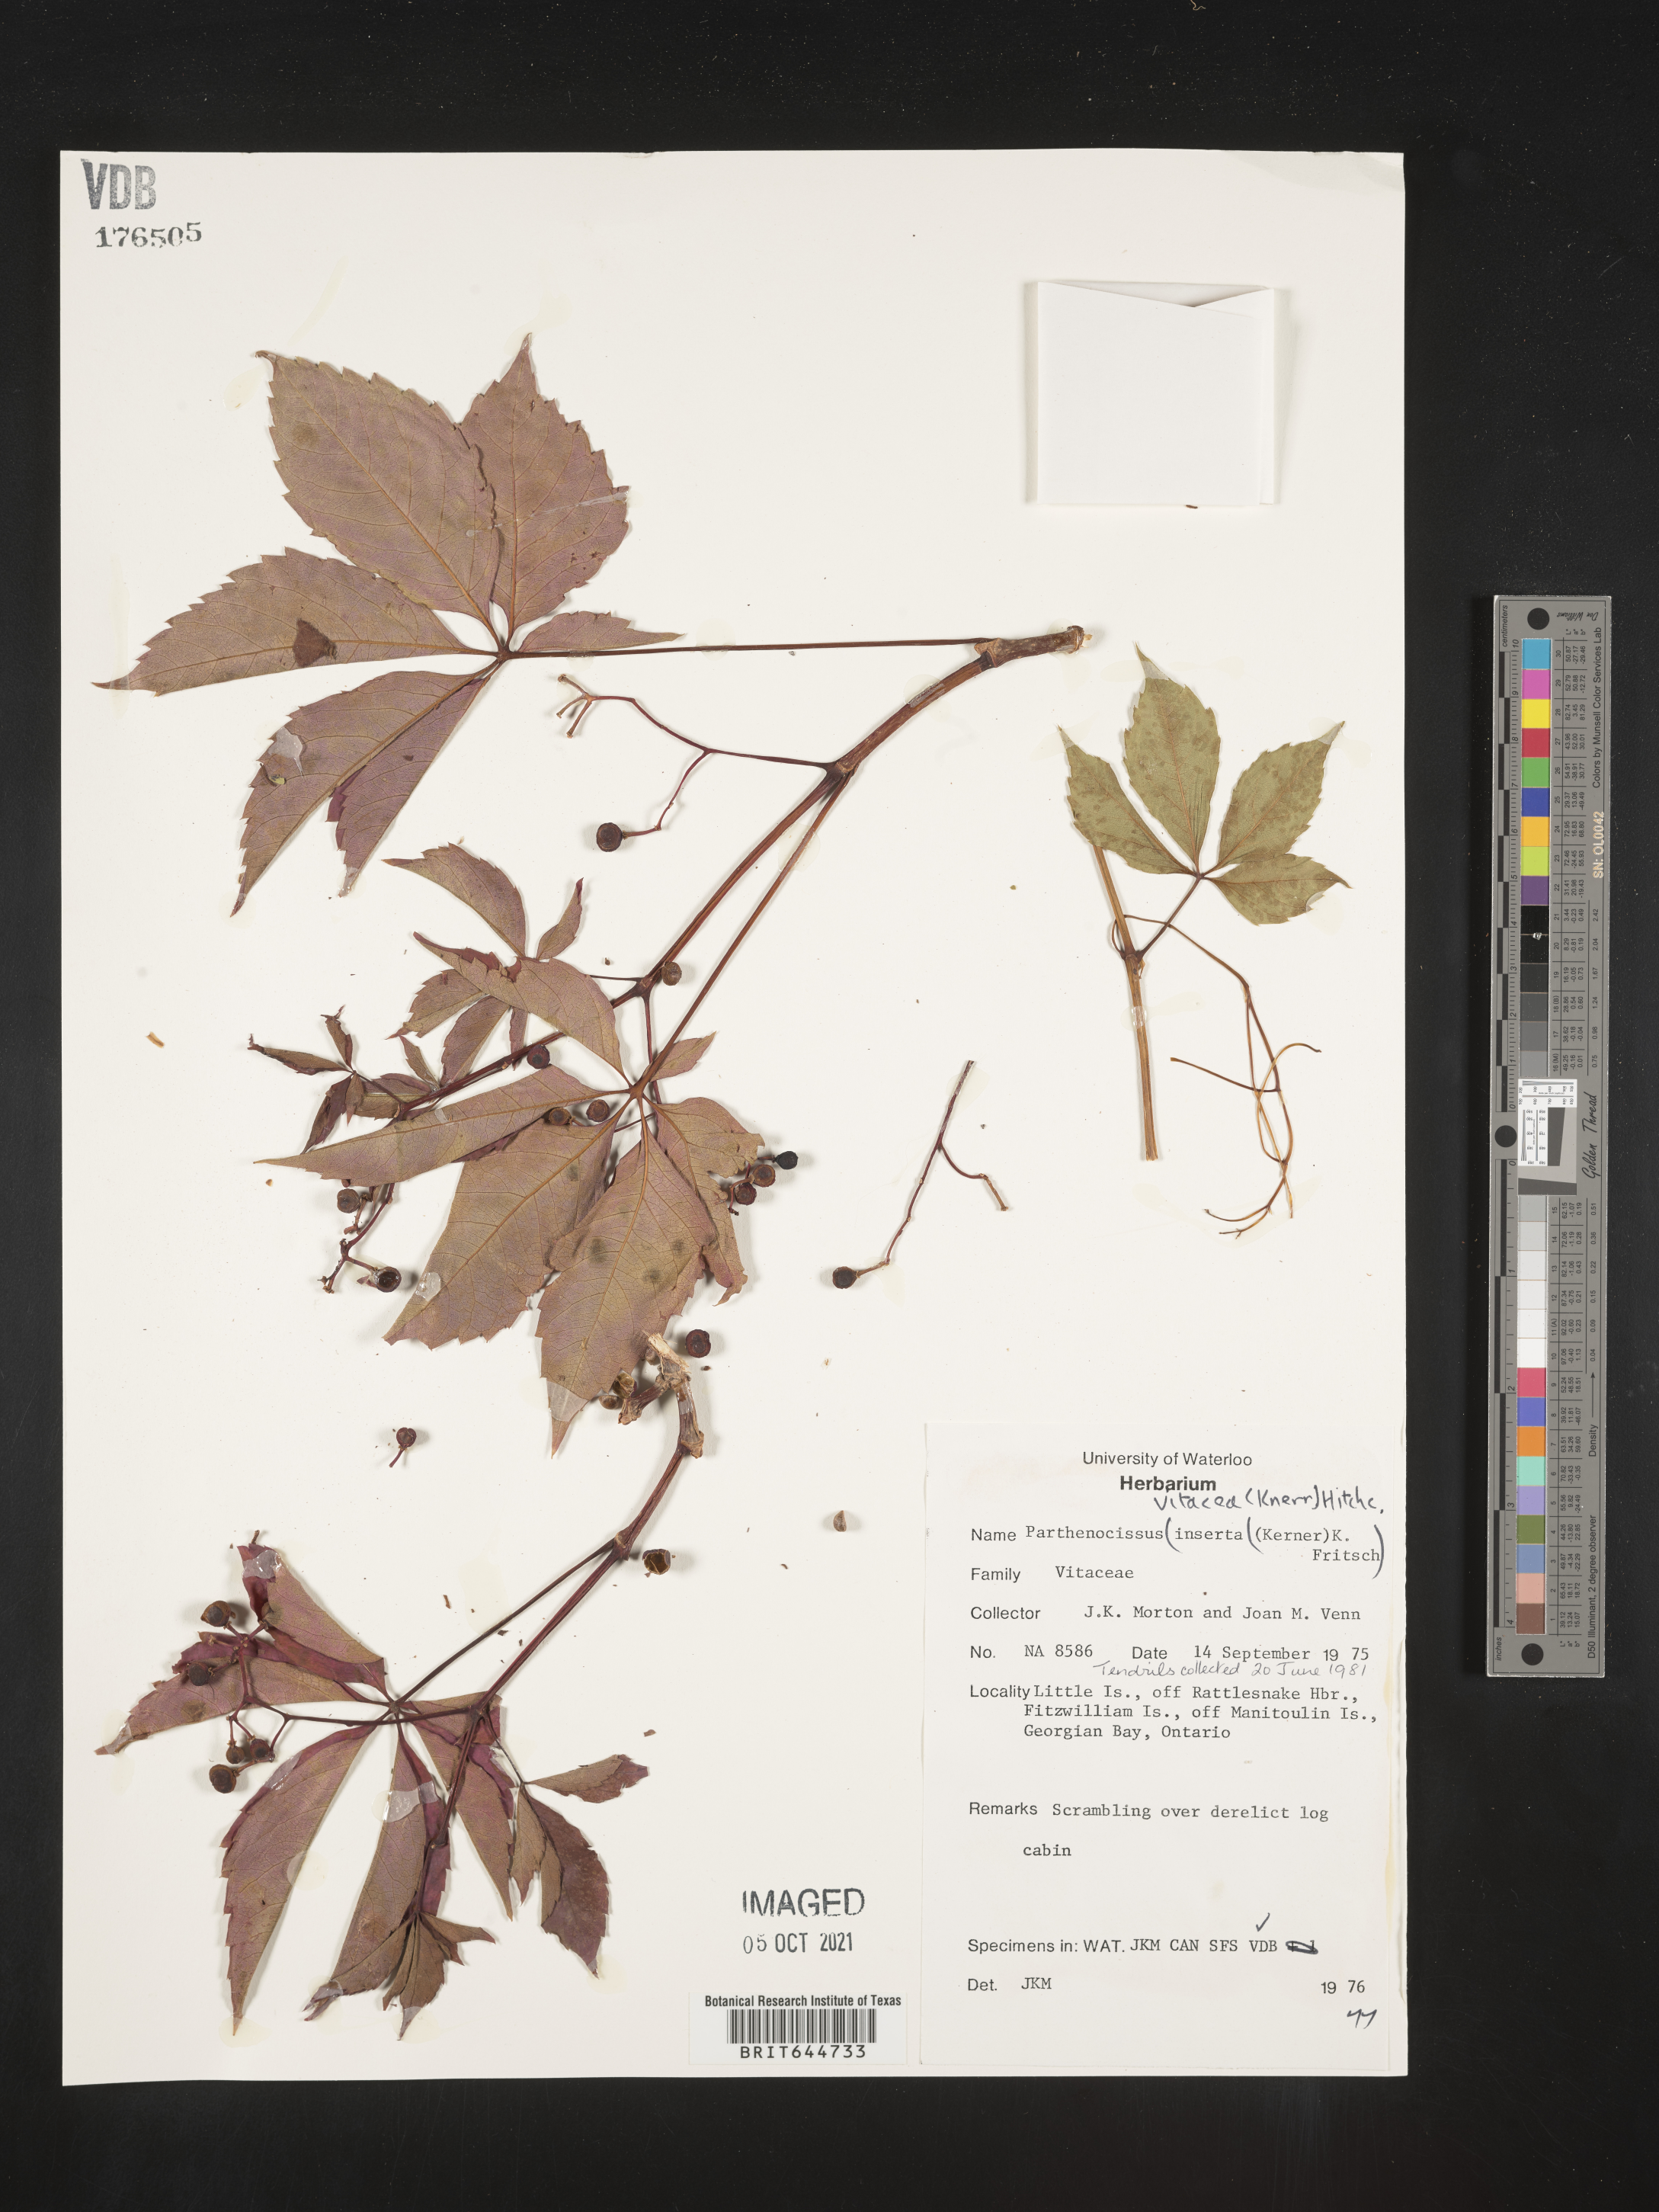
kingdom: Plantae
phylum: Tracheophyta
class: Magnoliopsida
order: Vitales
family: Vitaceae
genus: Parthenocissus
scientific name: Parthenocissus
